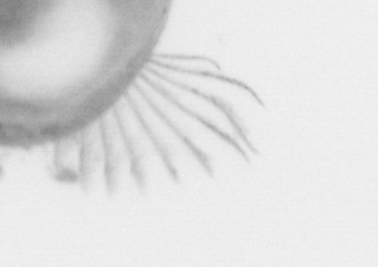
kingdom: Animalia
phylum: Chordata
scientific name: Chordata
